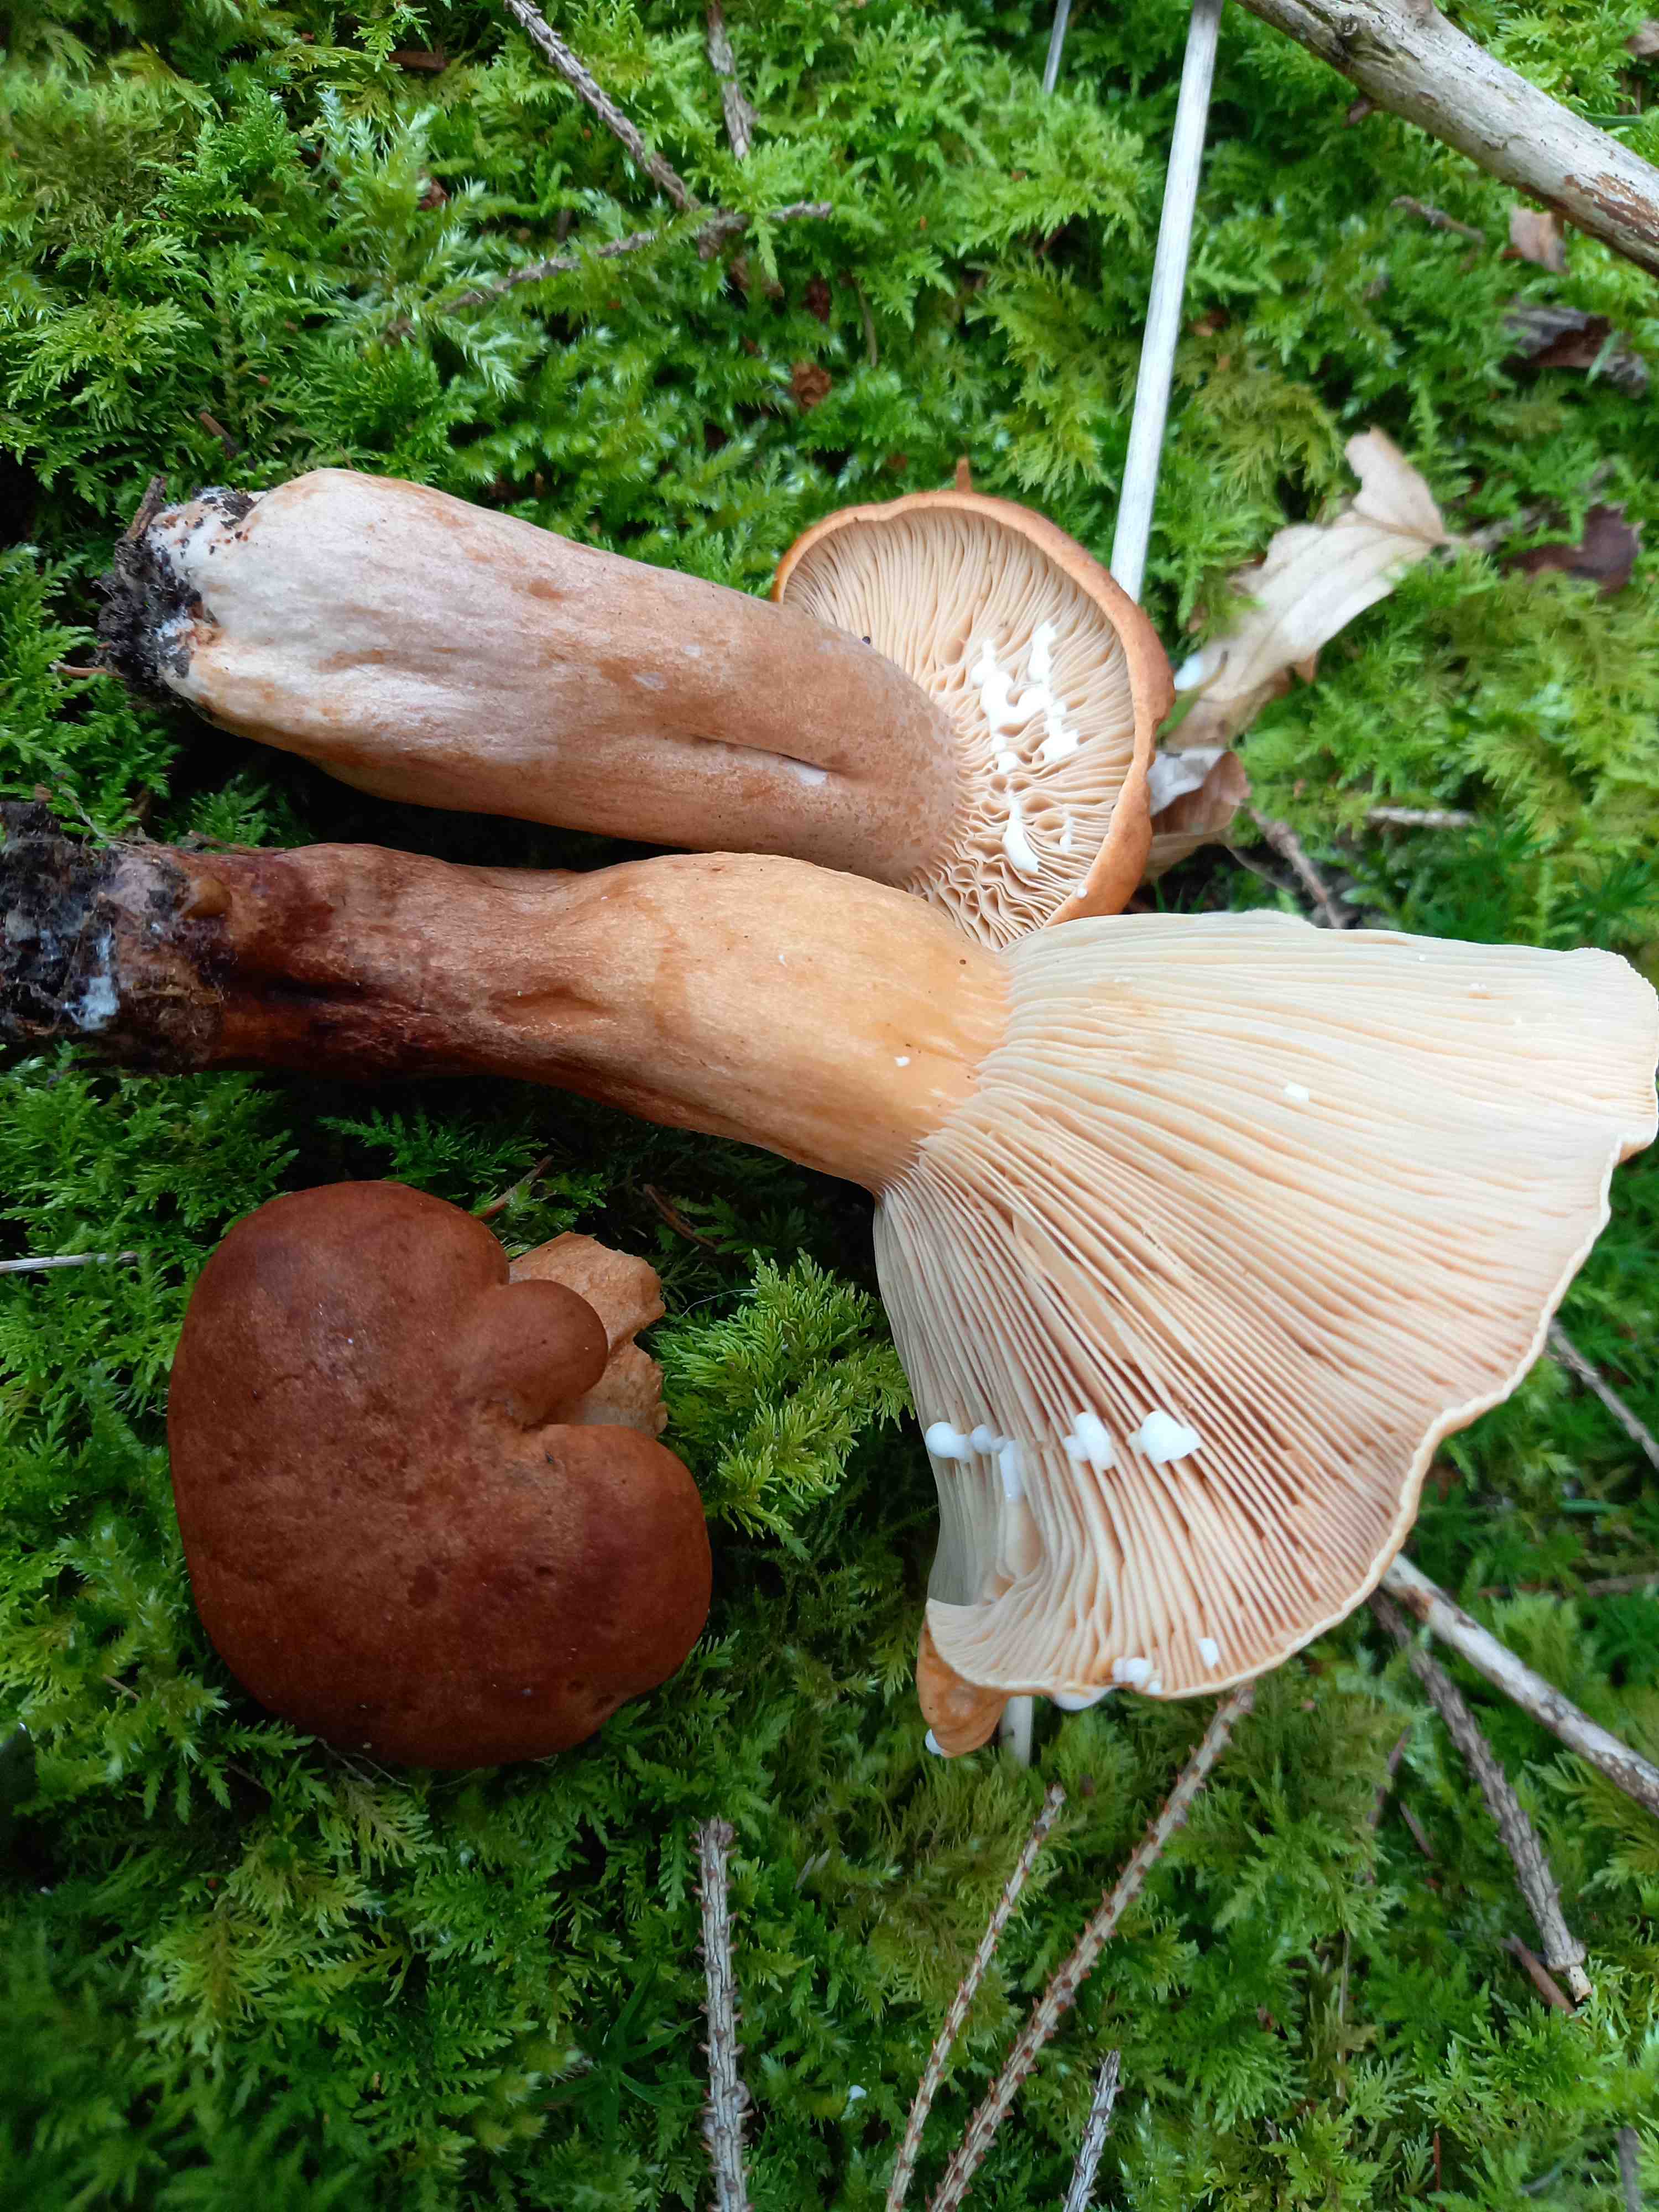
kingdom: Fungi
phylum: Basidiomycota
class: Agaricomycetes
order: Russulales
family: Russulaceae
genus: Lactarius
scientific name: Lactarius
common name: mælkehat
